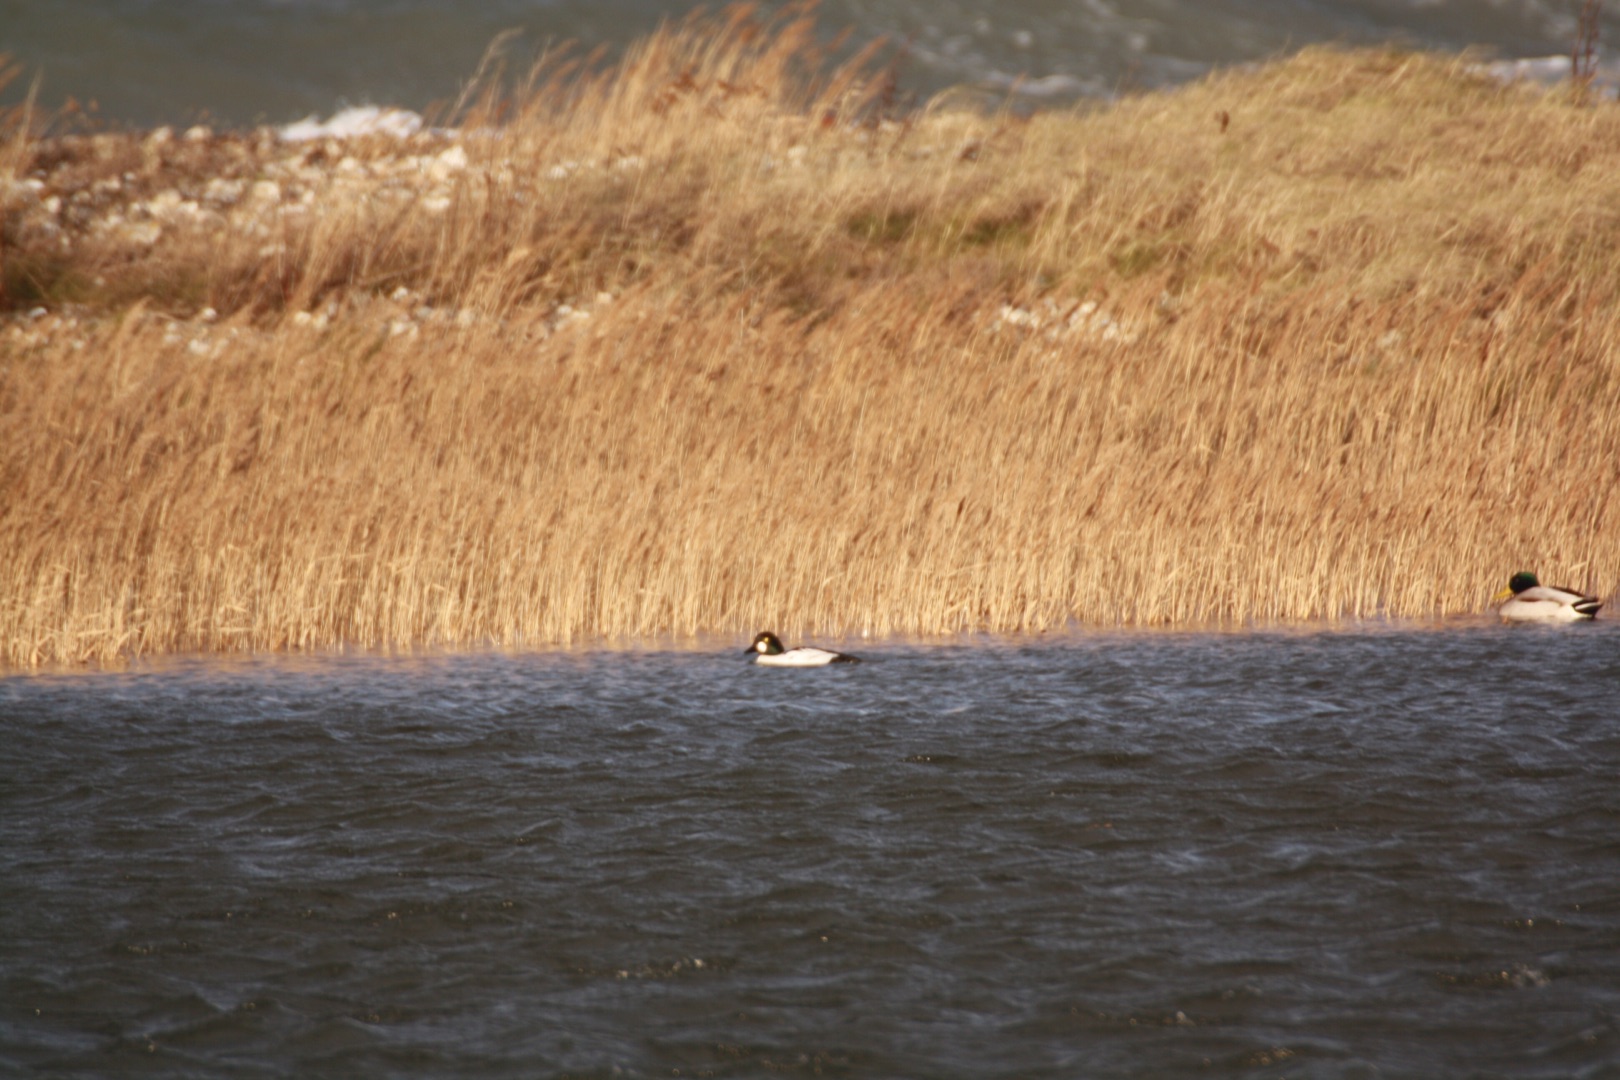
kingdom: Animalia
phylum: Chordata
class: Aves
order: Anseriformes
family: Anatidae
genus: Bucephala
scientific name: Bucephala clangula
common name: Hvinand
